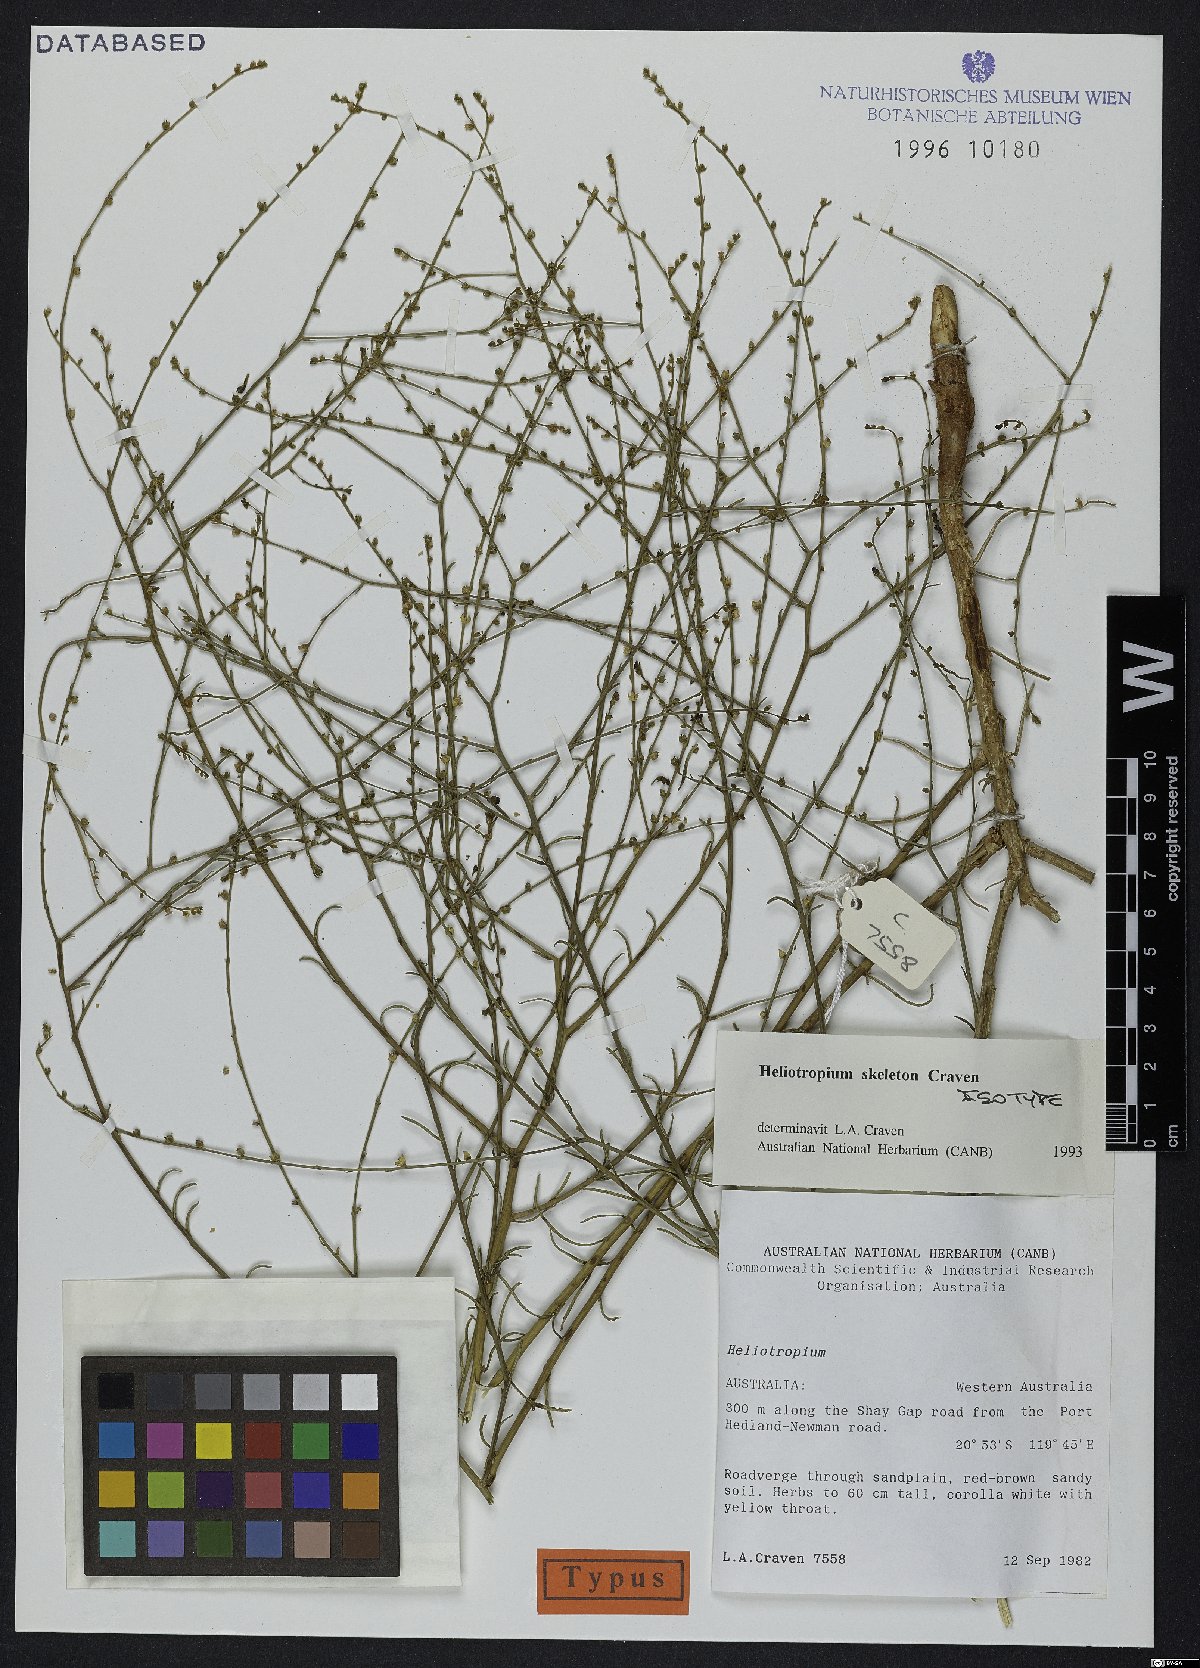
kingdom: Plantae
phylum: Tracheophyta
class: Magnoliopsida
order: Boraginales
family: Heliotropiaceae
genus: Euploca
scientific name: Euploca skeleton
